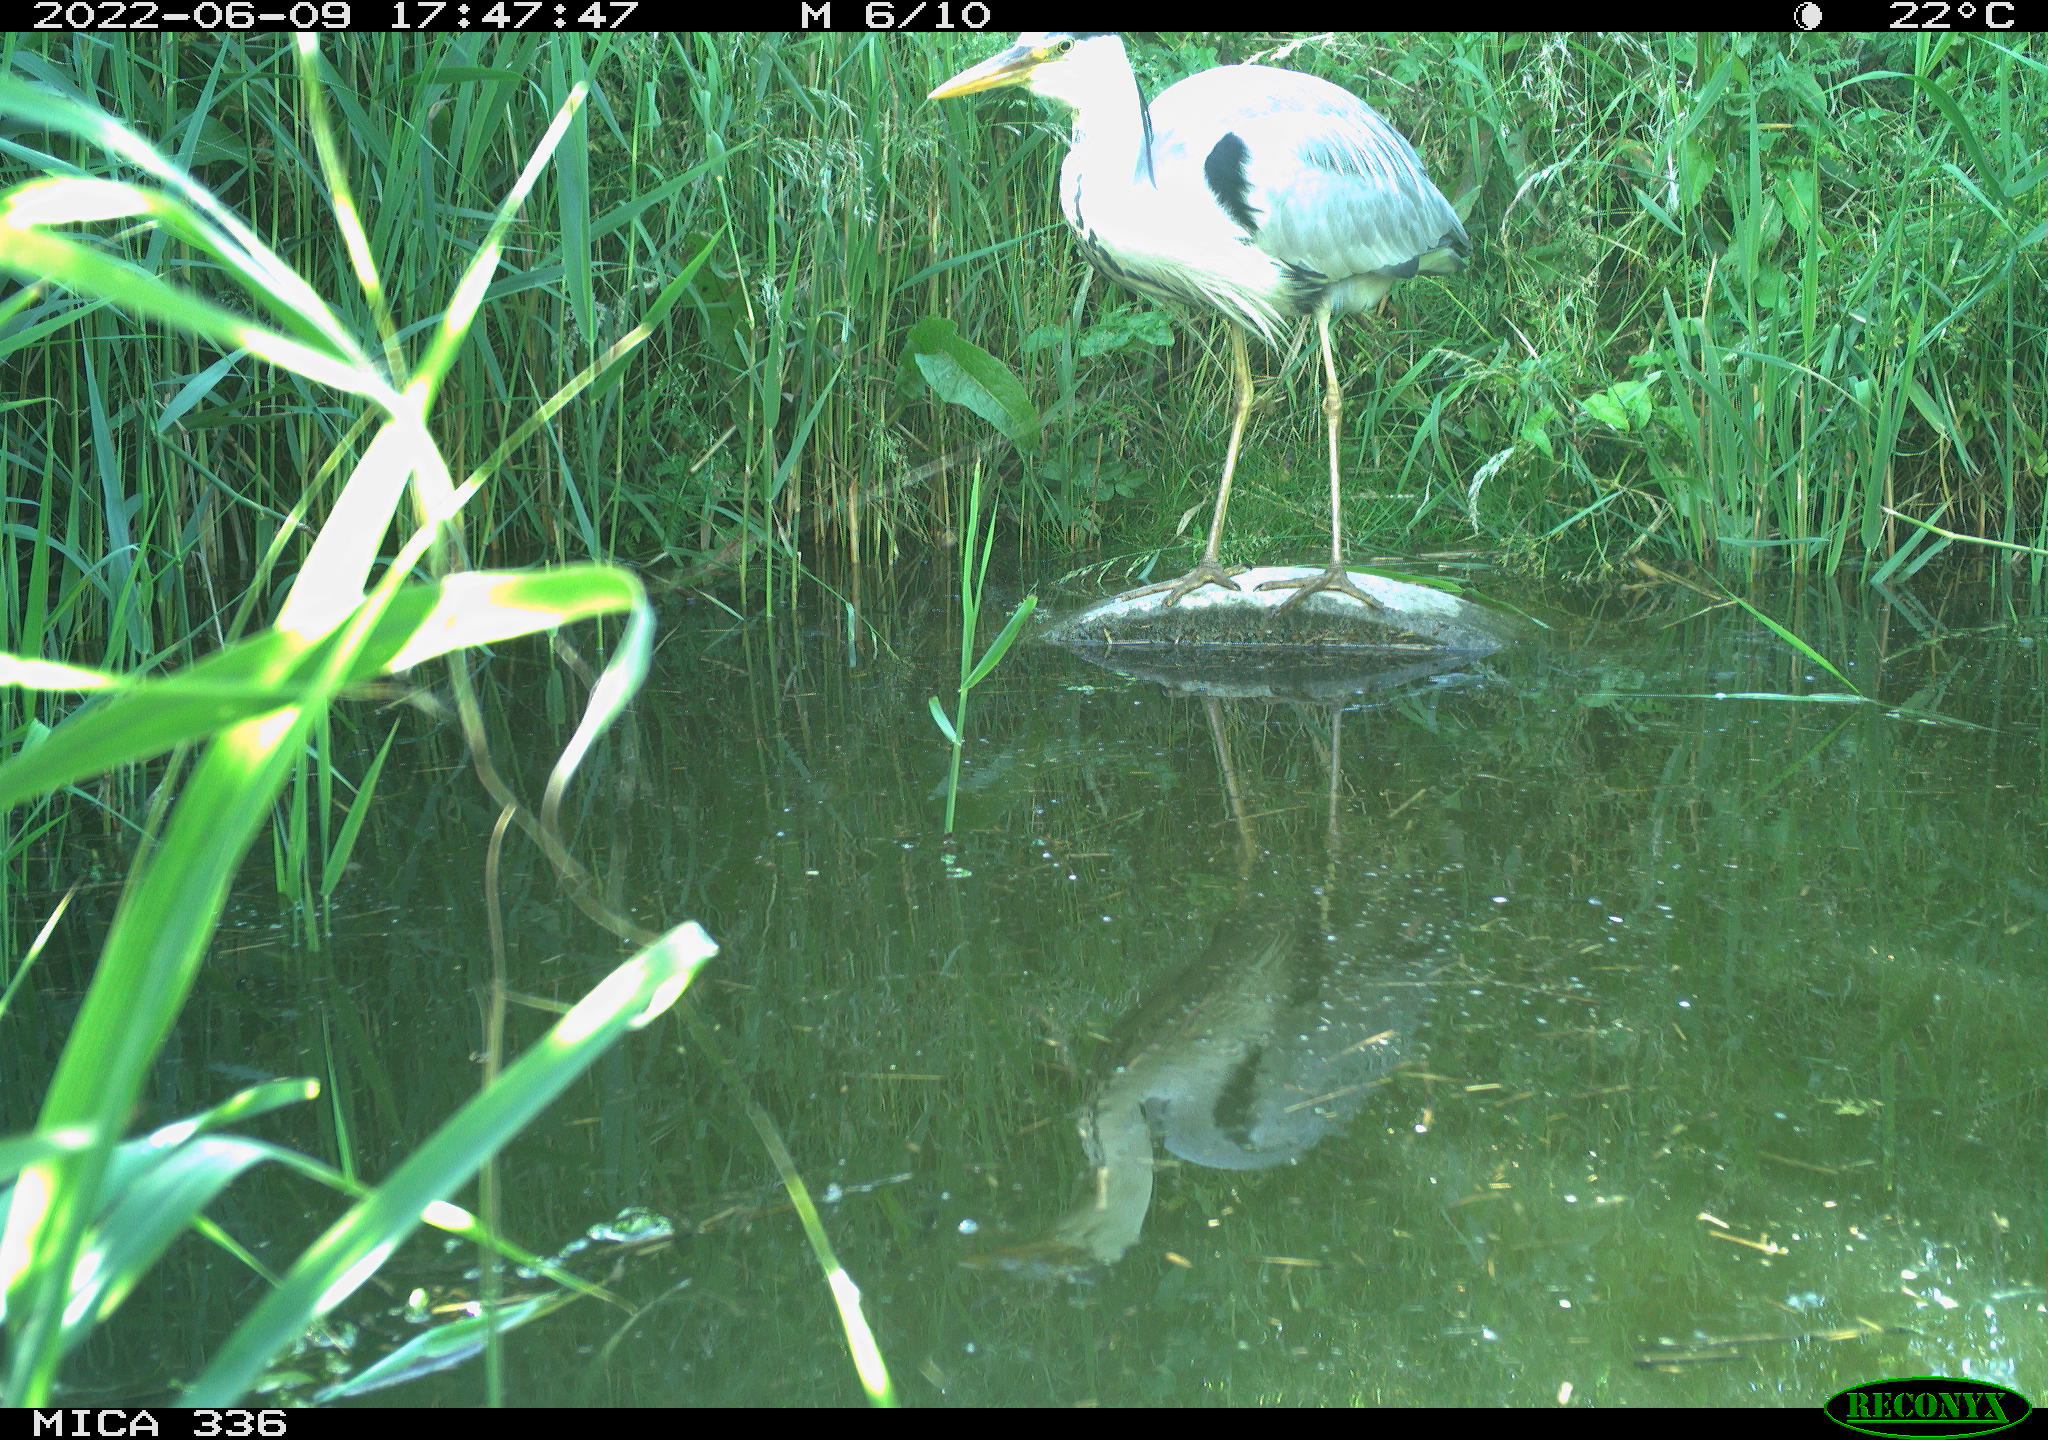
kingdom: Animalia
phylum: Chordata
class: Aves
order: Pelecaniformes
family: Ardeidae
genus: Ardea
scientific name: Ardea
